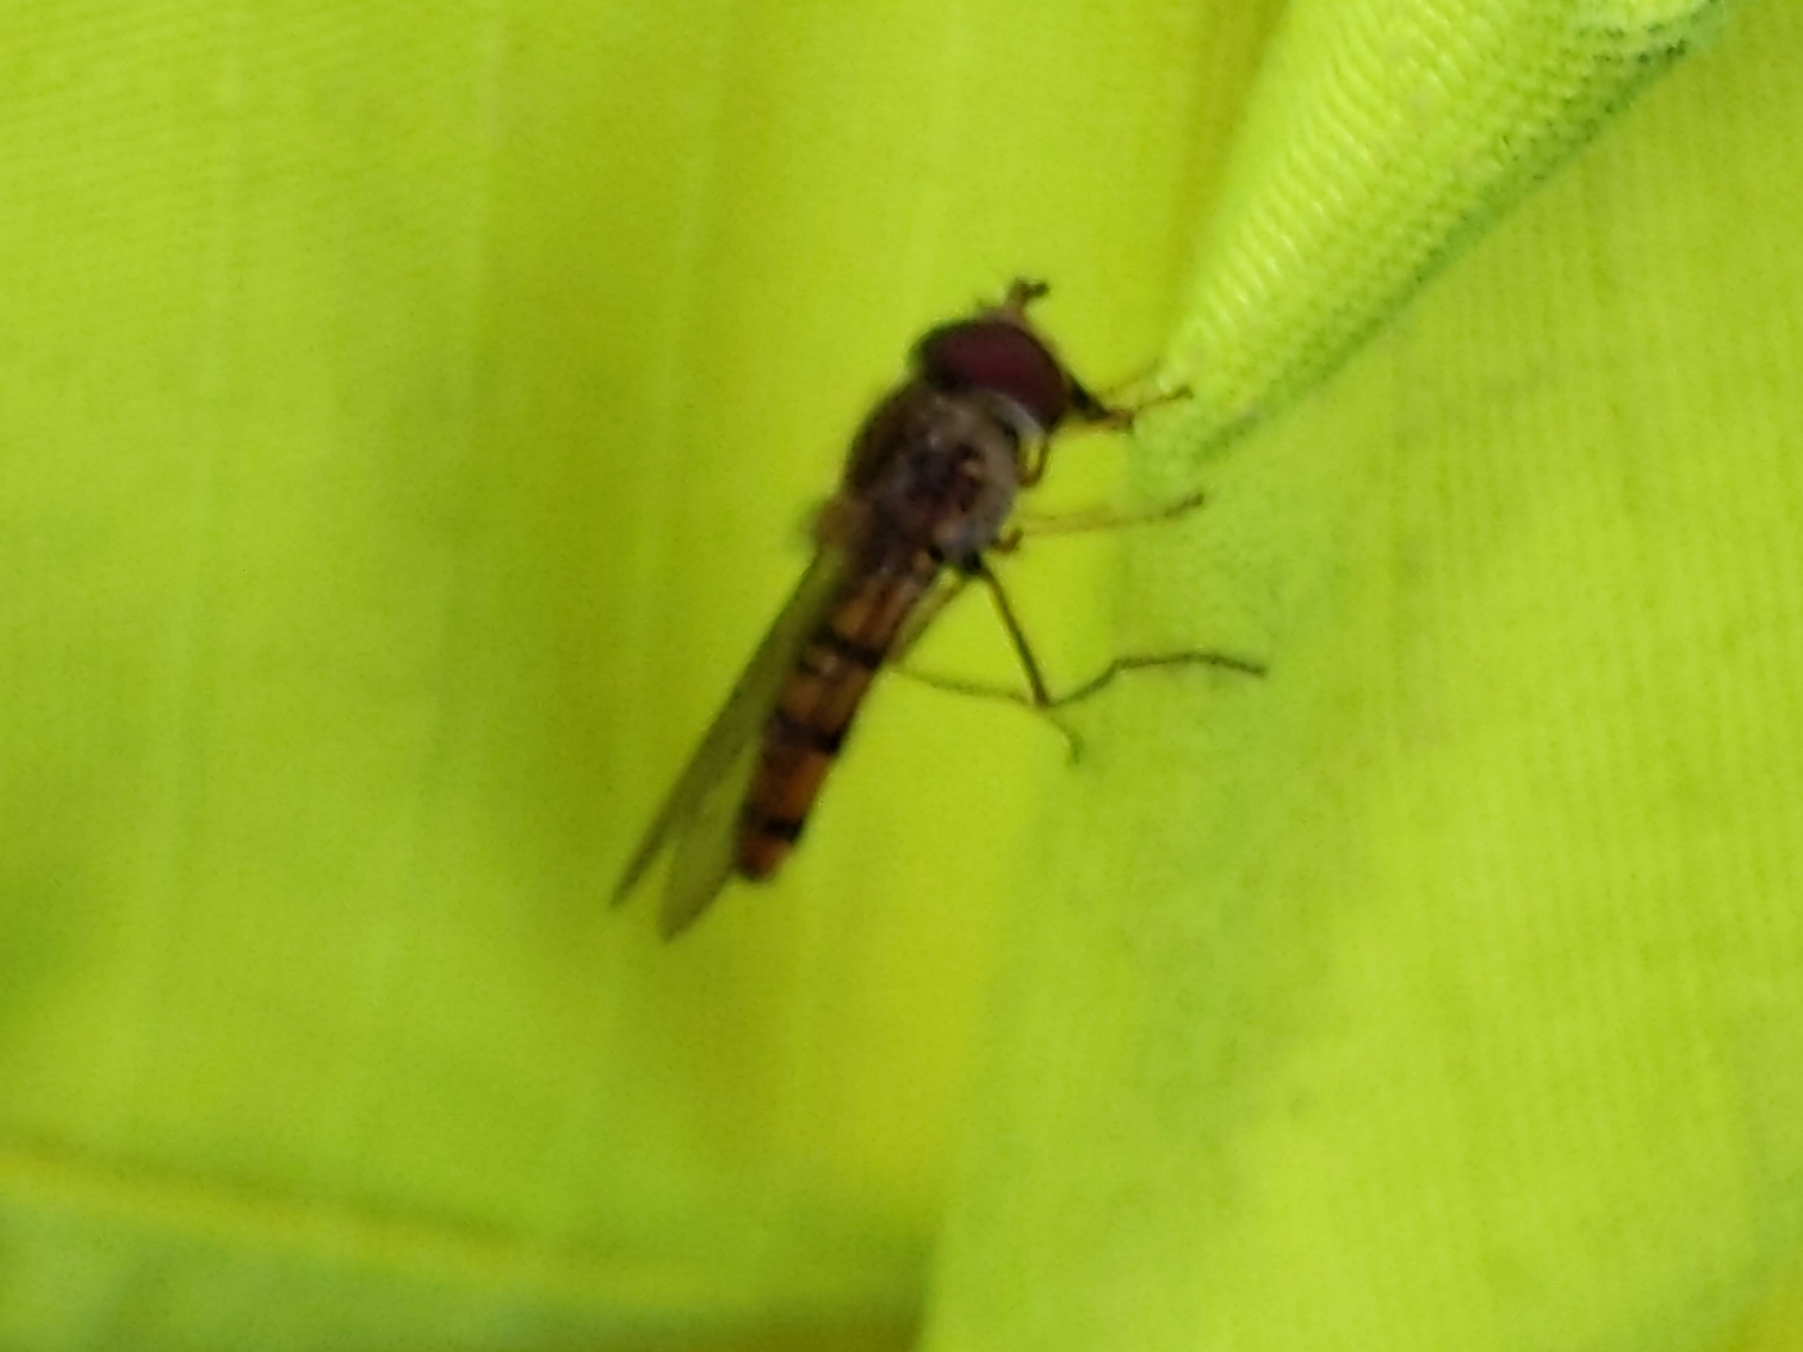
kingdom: Animalia
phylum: Arthropoda
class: Insecta
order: Diptera
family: Syrphidae
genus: Episyrphus
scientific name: Episyrphus balteatus
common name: Dobbeltbåndet svirreflue
